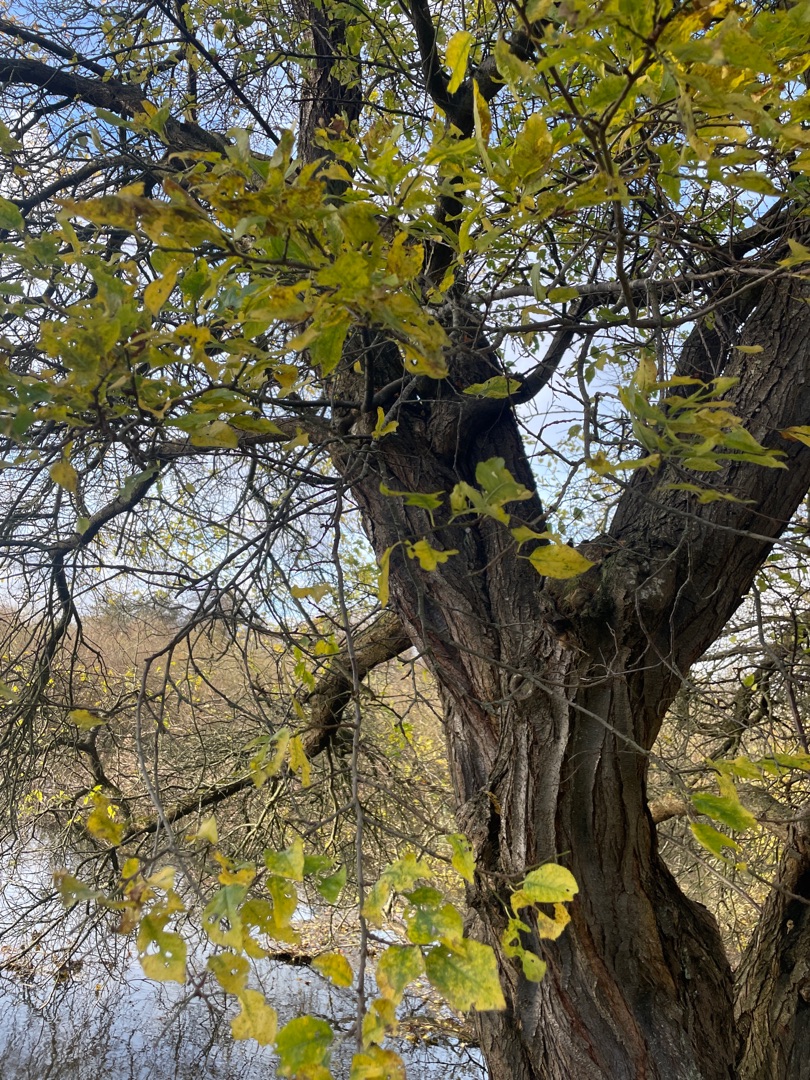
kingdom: Plantae
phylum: Tracheophyta
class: Magnoliopsida
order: Rosales
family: Rosaceae
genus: Prunus
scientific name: Prunus cerasifera
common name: Mirabel
